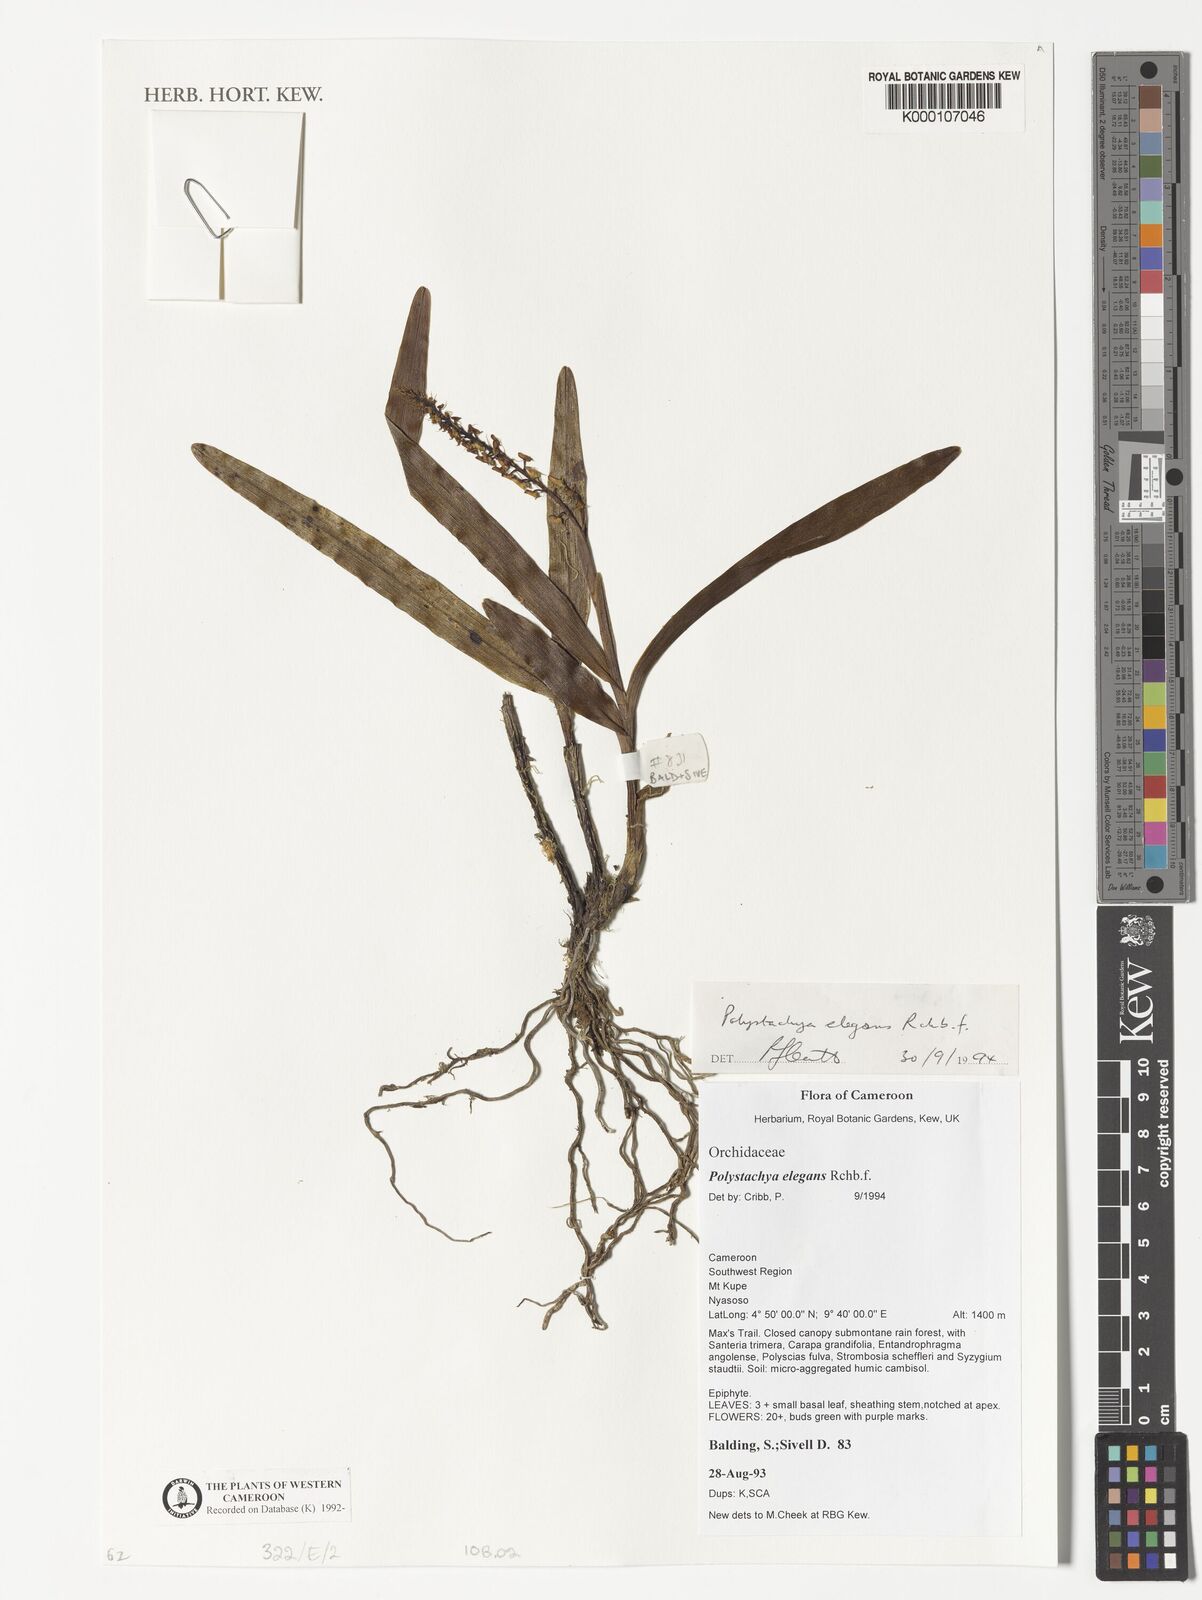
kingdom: Plantae
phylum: Tracheophyta
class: Liliopsida
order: Asparagales
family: Orchidaceae
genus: Polystachya
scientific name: Polystachya elegans
